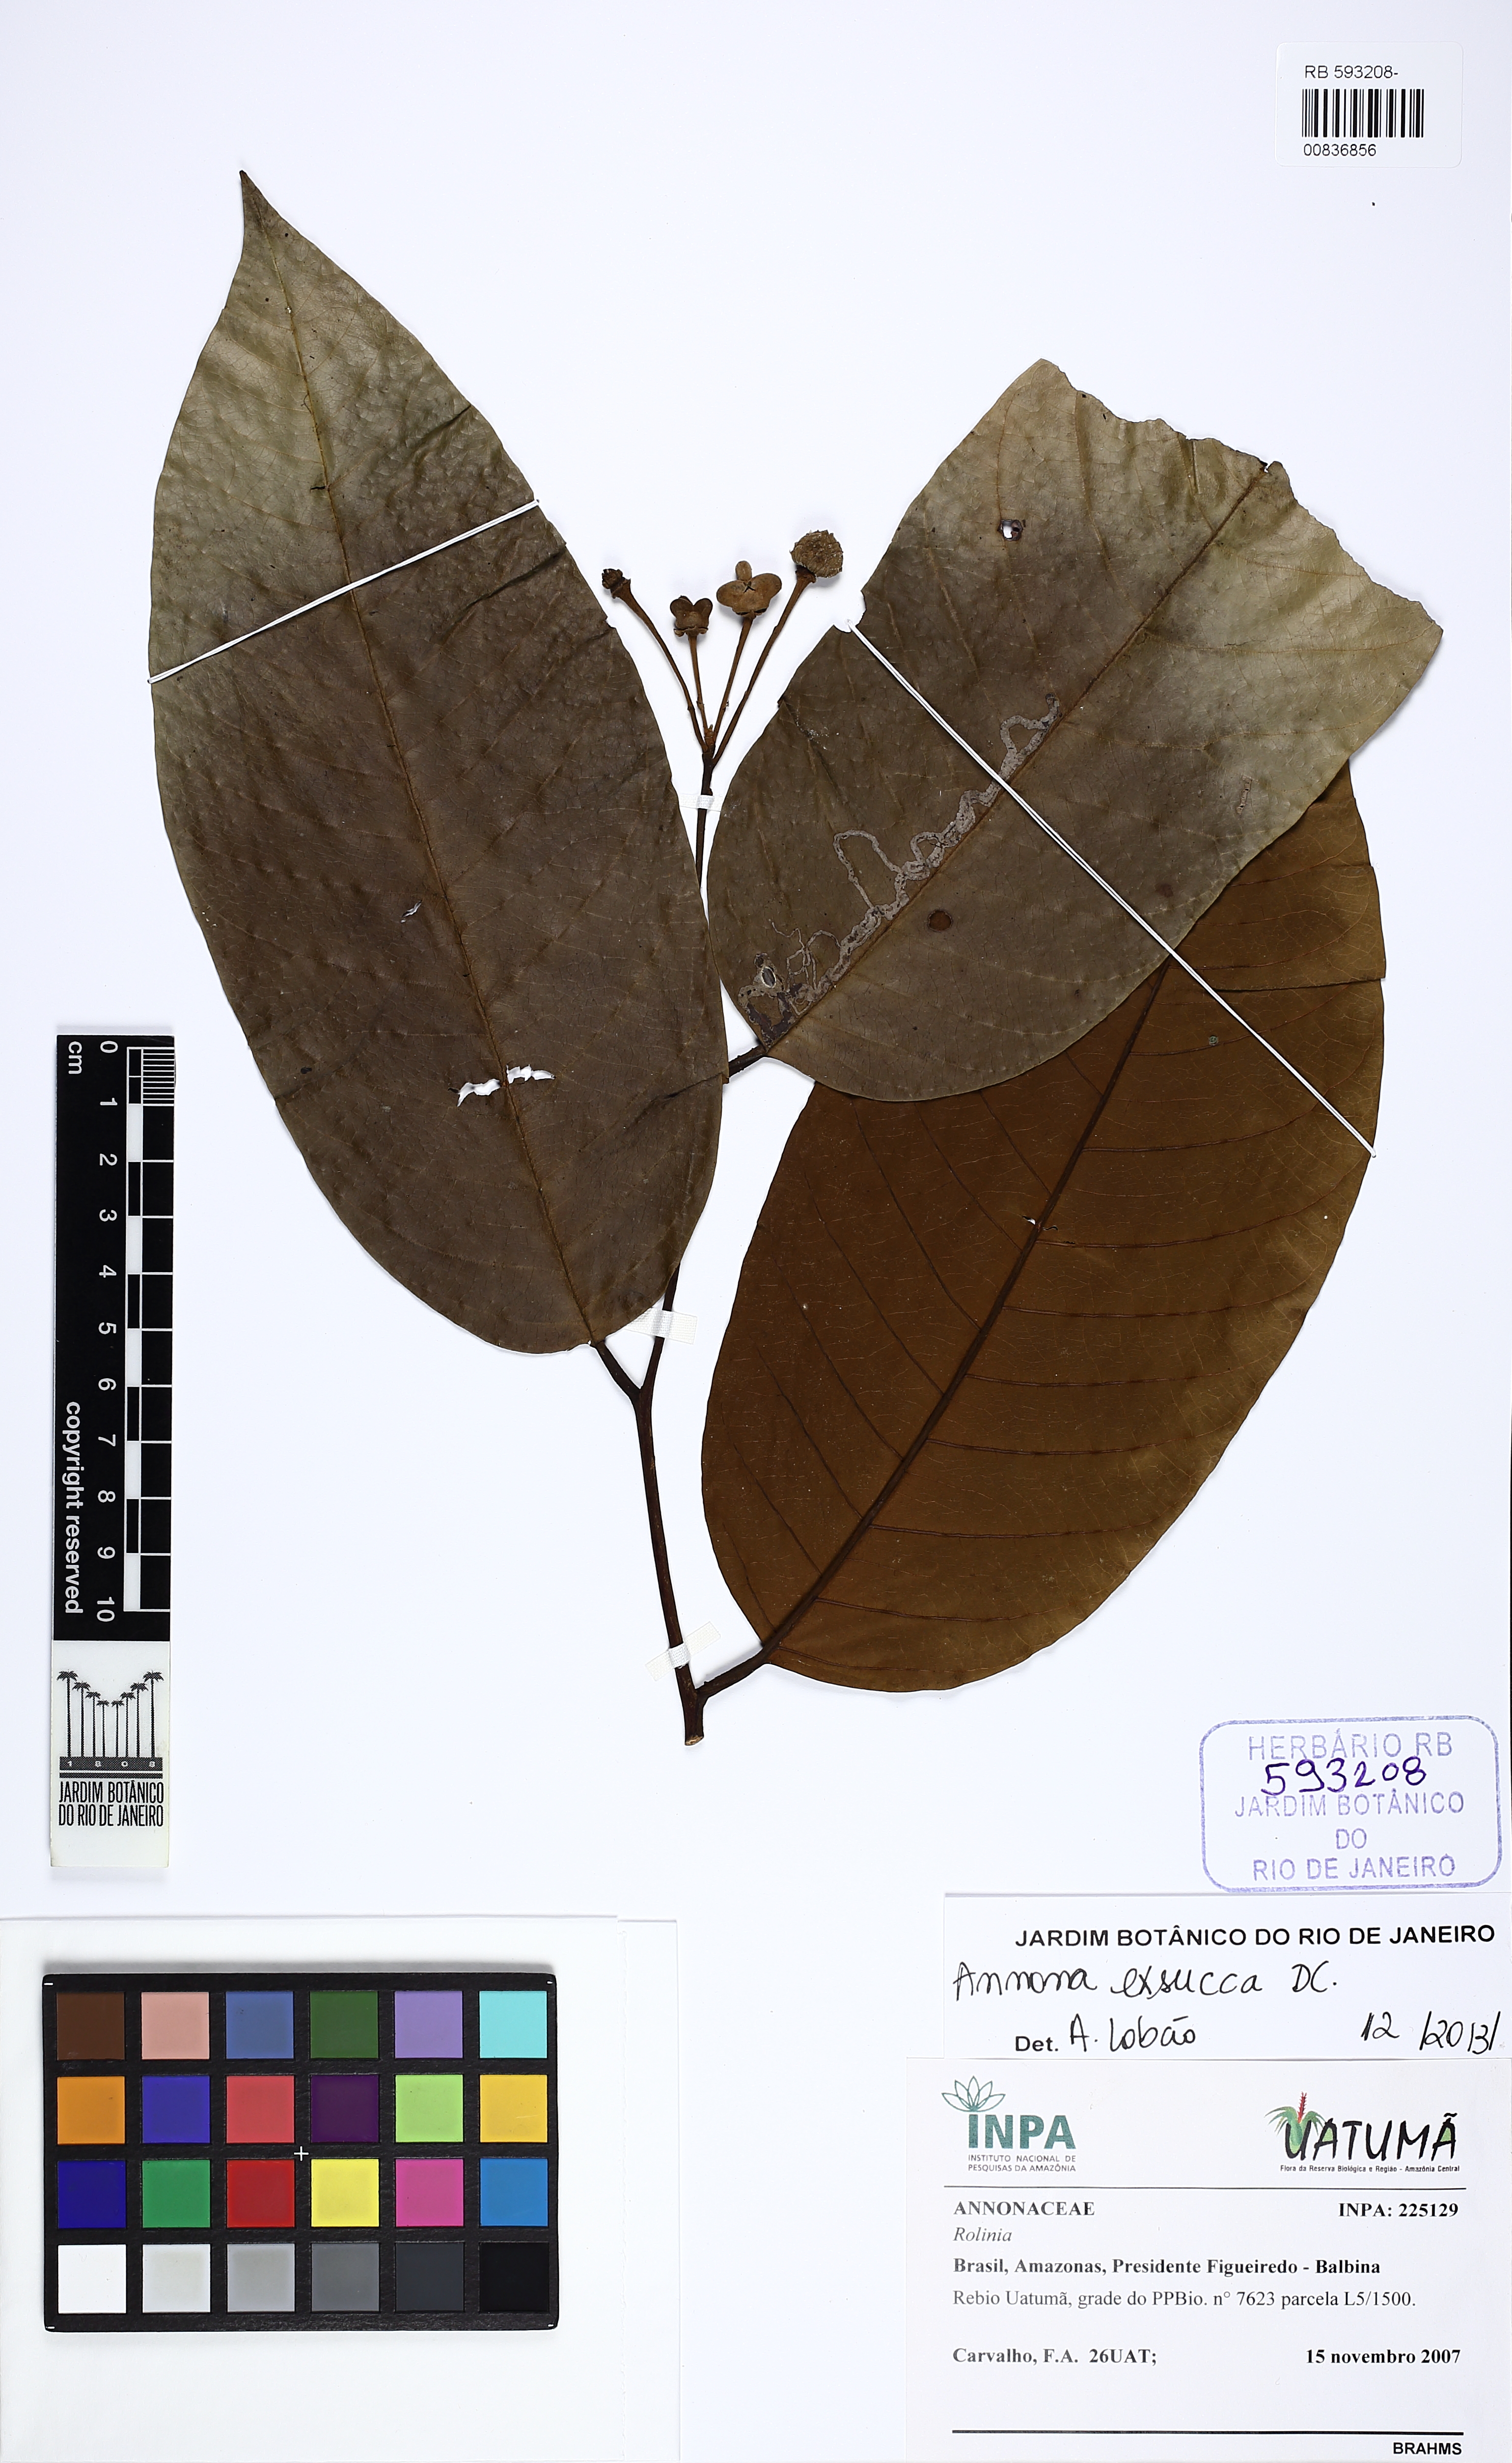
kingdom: Plantae
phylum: Tracheophyta
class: Magnoliopsida
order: Magnoliales
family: Annonaceae
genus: Annona
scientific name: Annona exsucca
